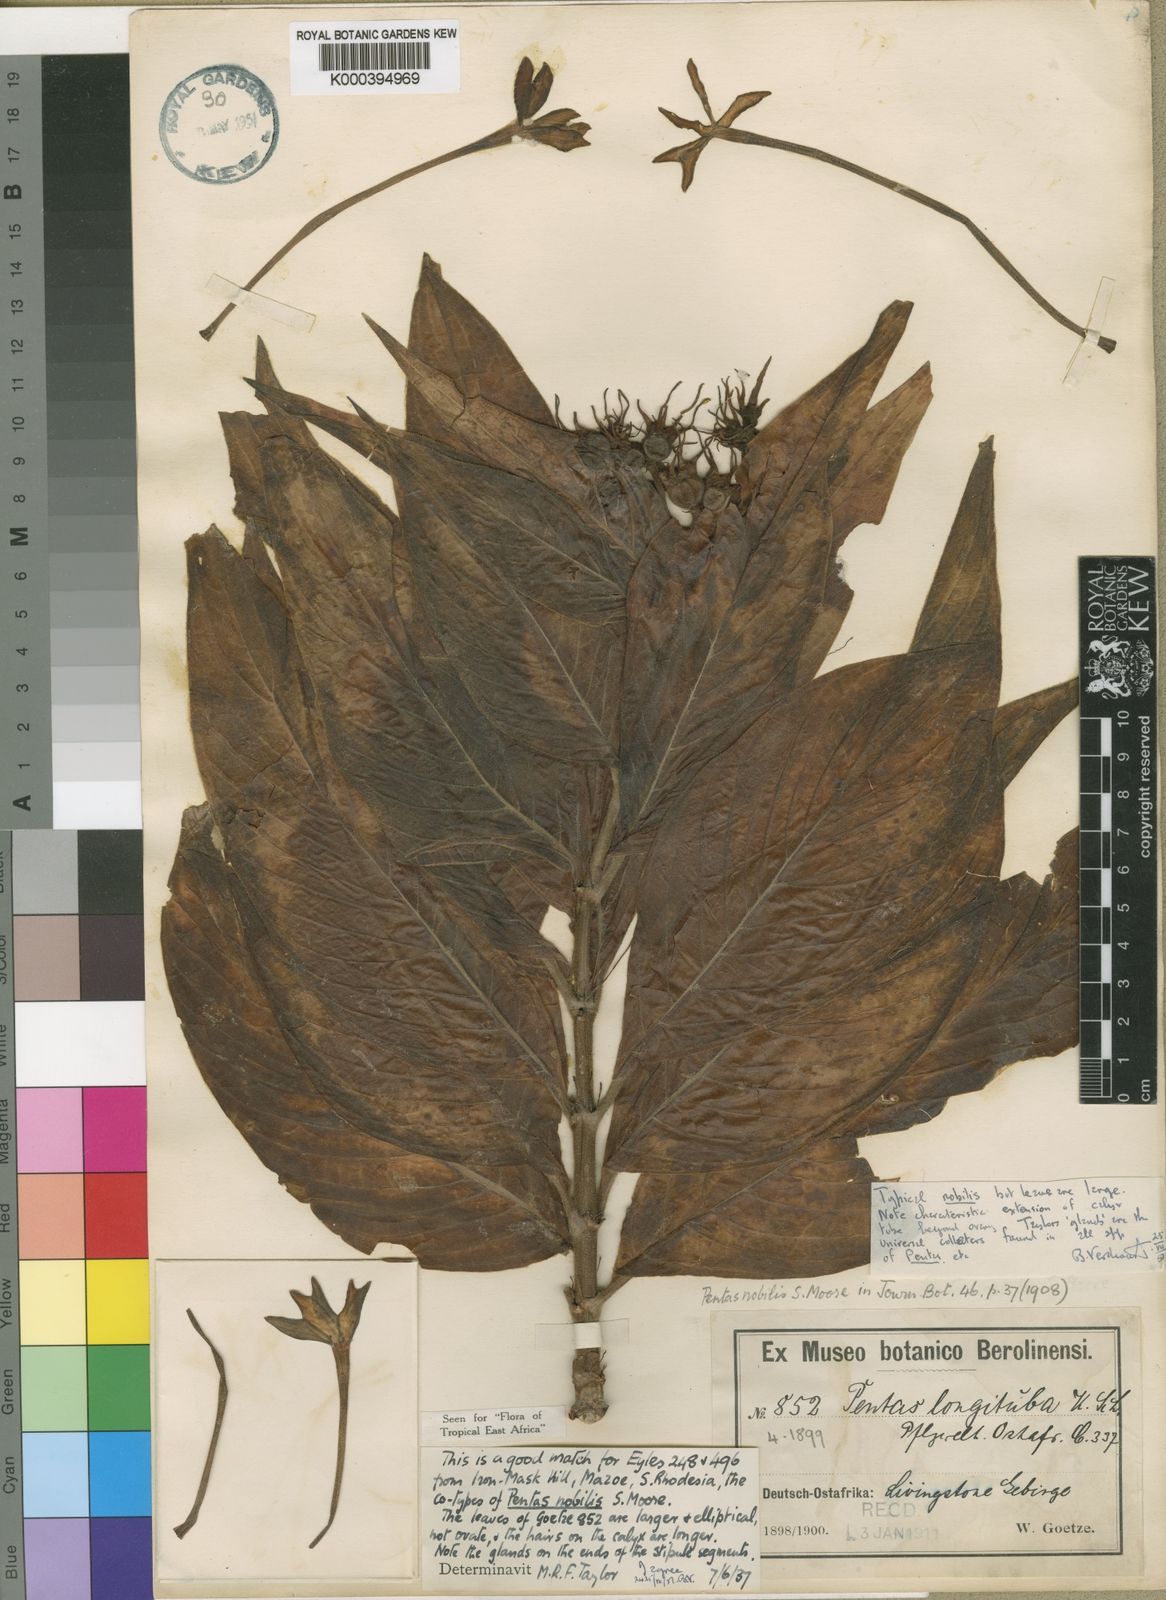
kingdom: Plantae
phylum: Tracheophyta
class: Magnoliopsida
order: Gentianales
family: Rubiaceae
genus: Chamaepentas
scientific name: Chamaepentas
